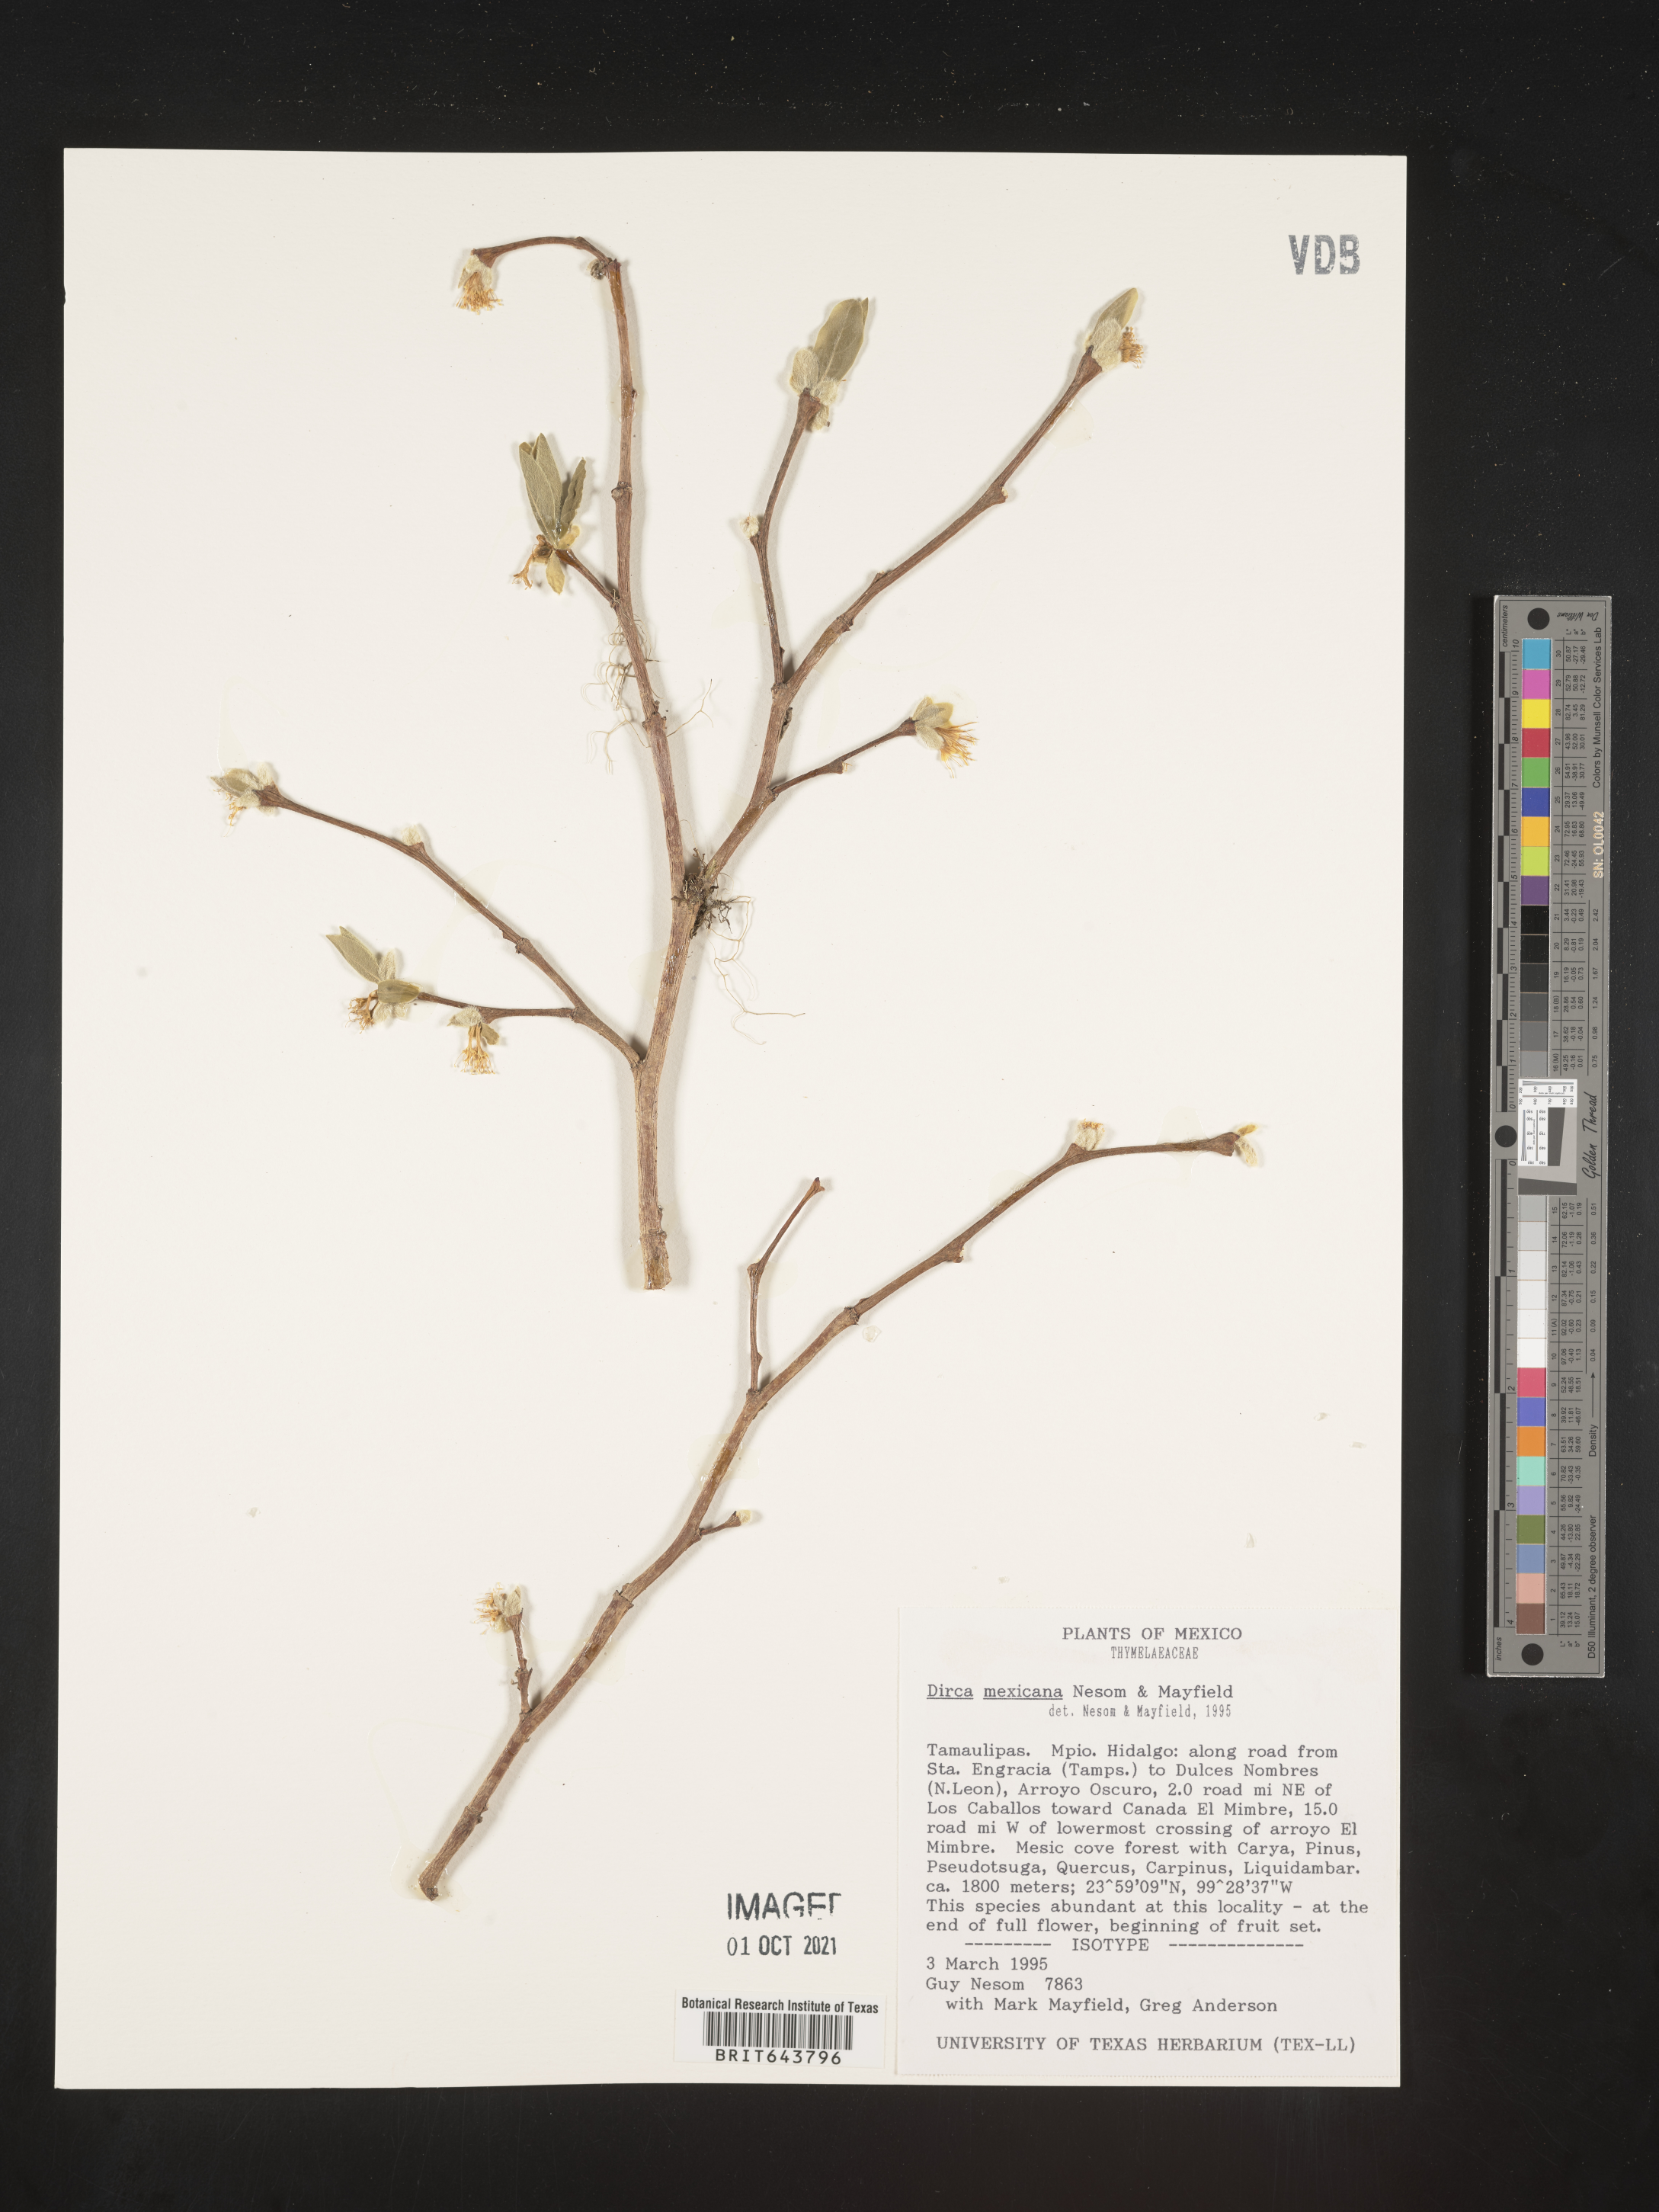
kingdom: Plantae
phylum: Tracheophyta
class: Magnoliopsida
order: Malvales
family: Thymelaeaceae
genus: Dirca
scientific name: Dirca mexicana
